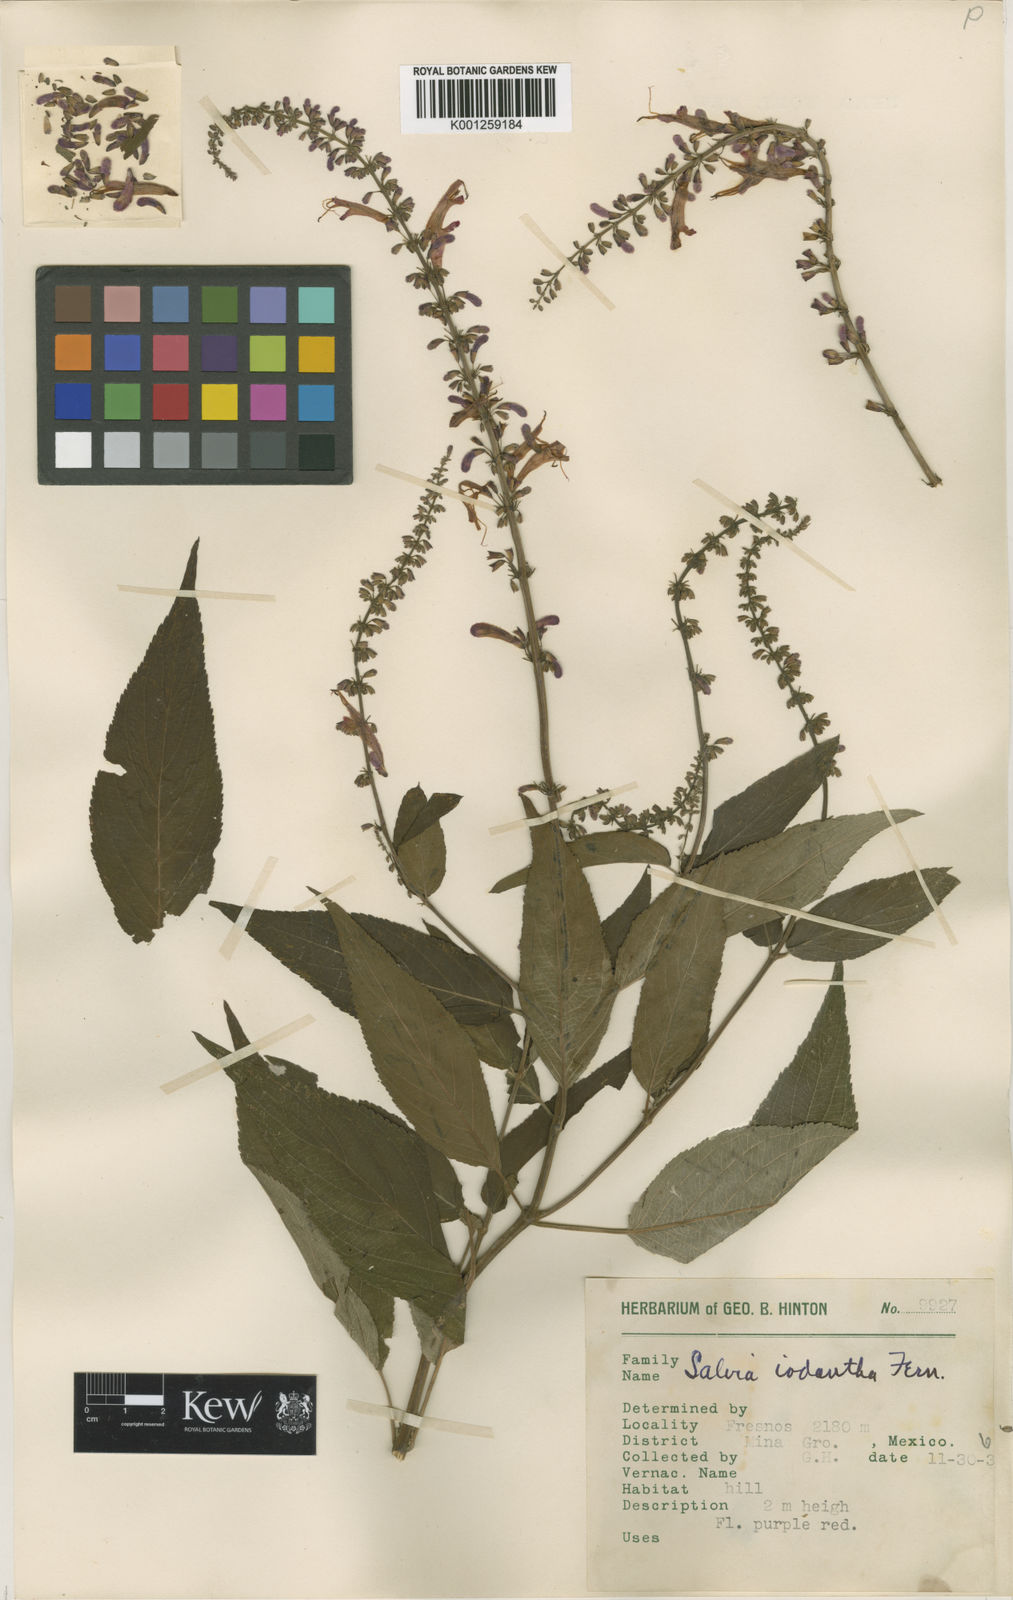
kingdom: Plantae
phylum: Tracheophyta
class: Magnoliopsida
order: Lamiales
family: Lamiaceae
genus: Salvia
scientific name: Salvia iodantha
